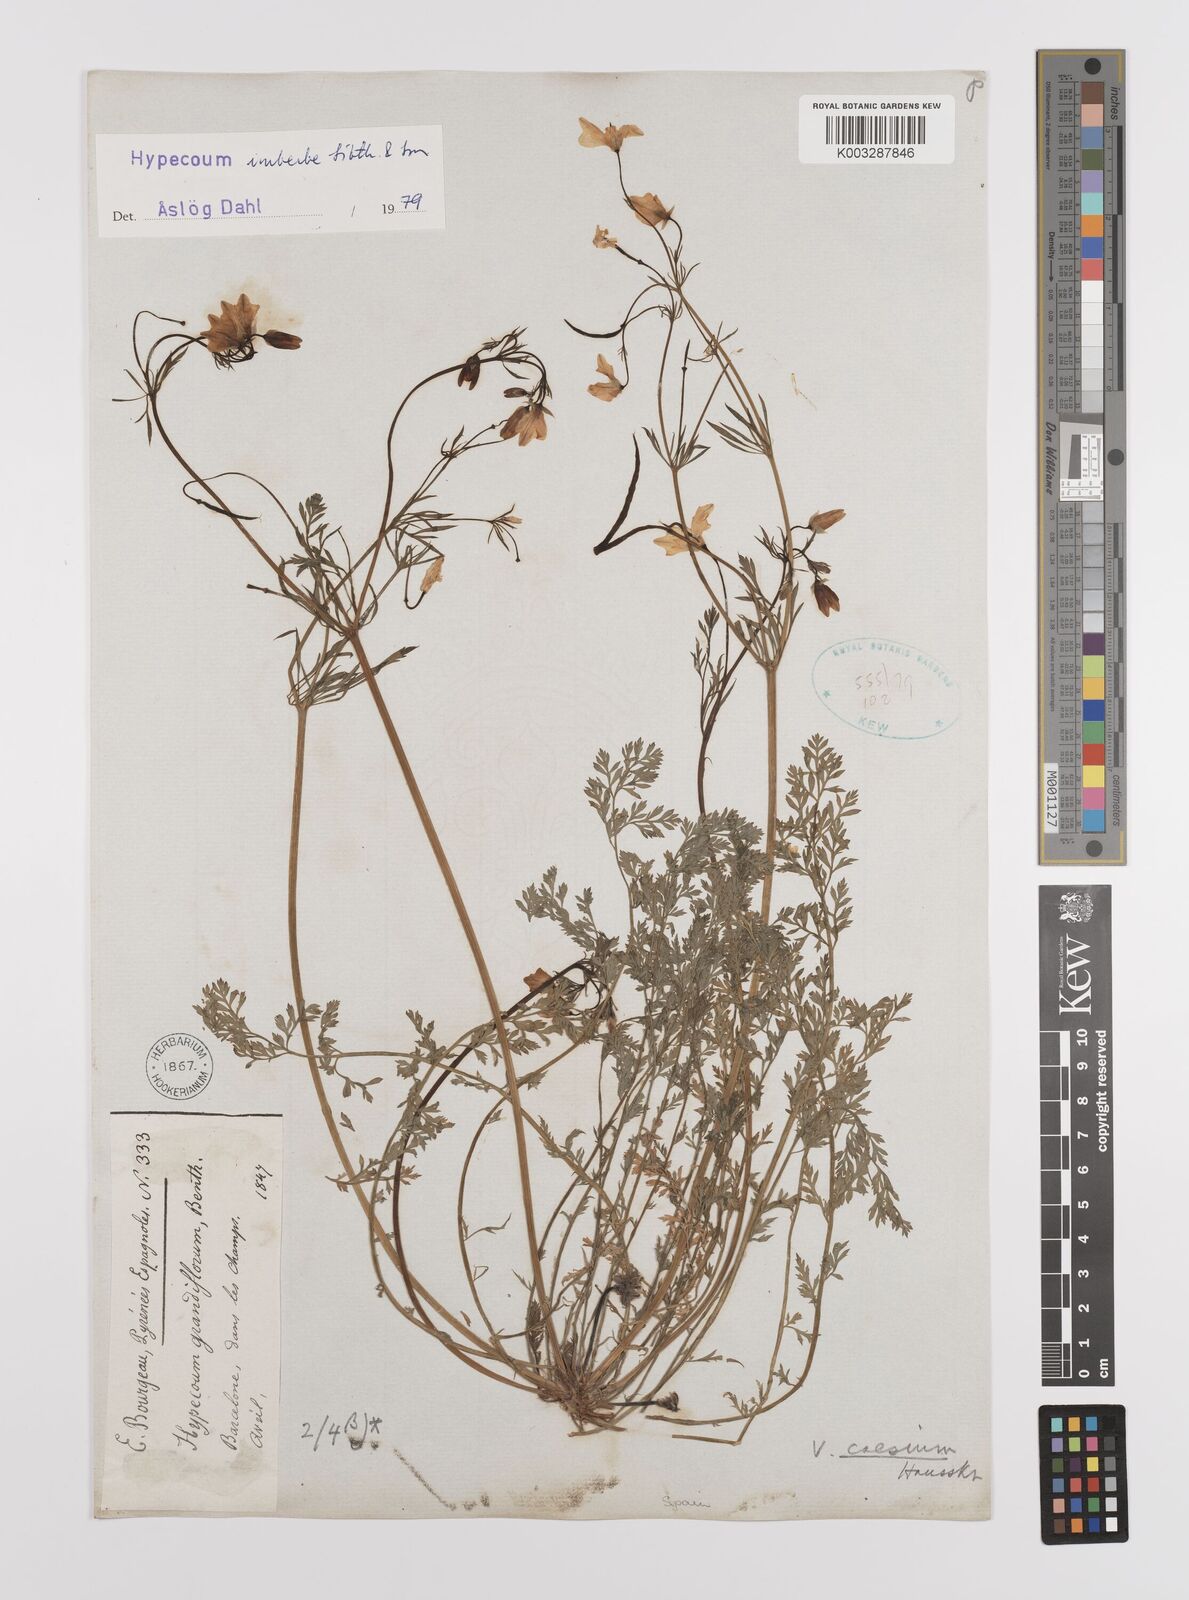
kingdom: Plantae
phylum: Tracheophyta
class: Magnoliopsida
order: Ranunculales
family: Papaveraceae
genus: Hypecoum
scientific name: Hypecoum imberbe
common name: Sicklefruit hypecoum
